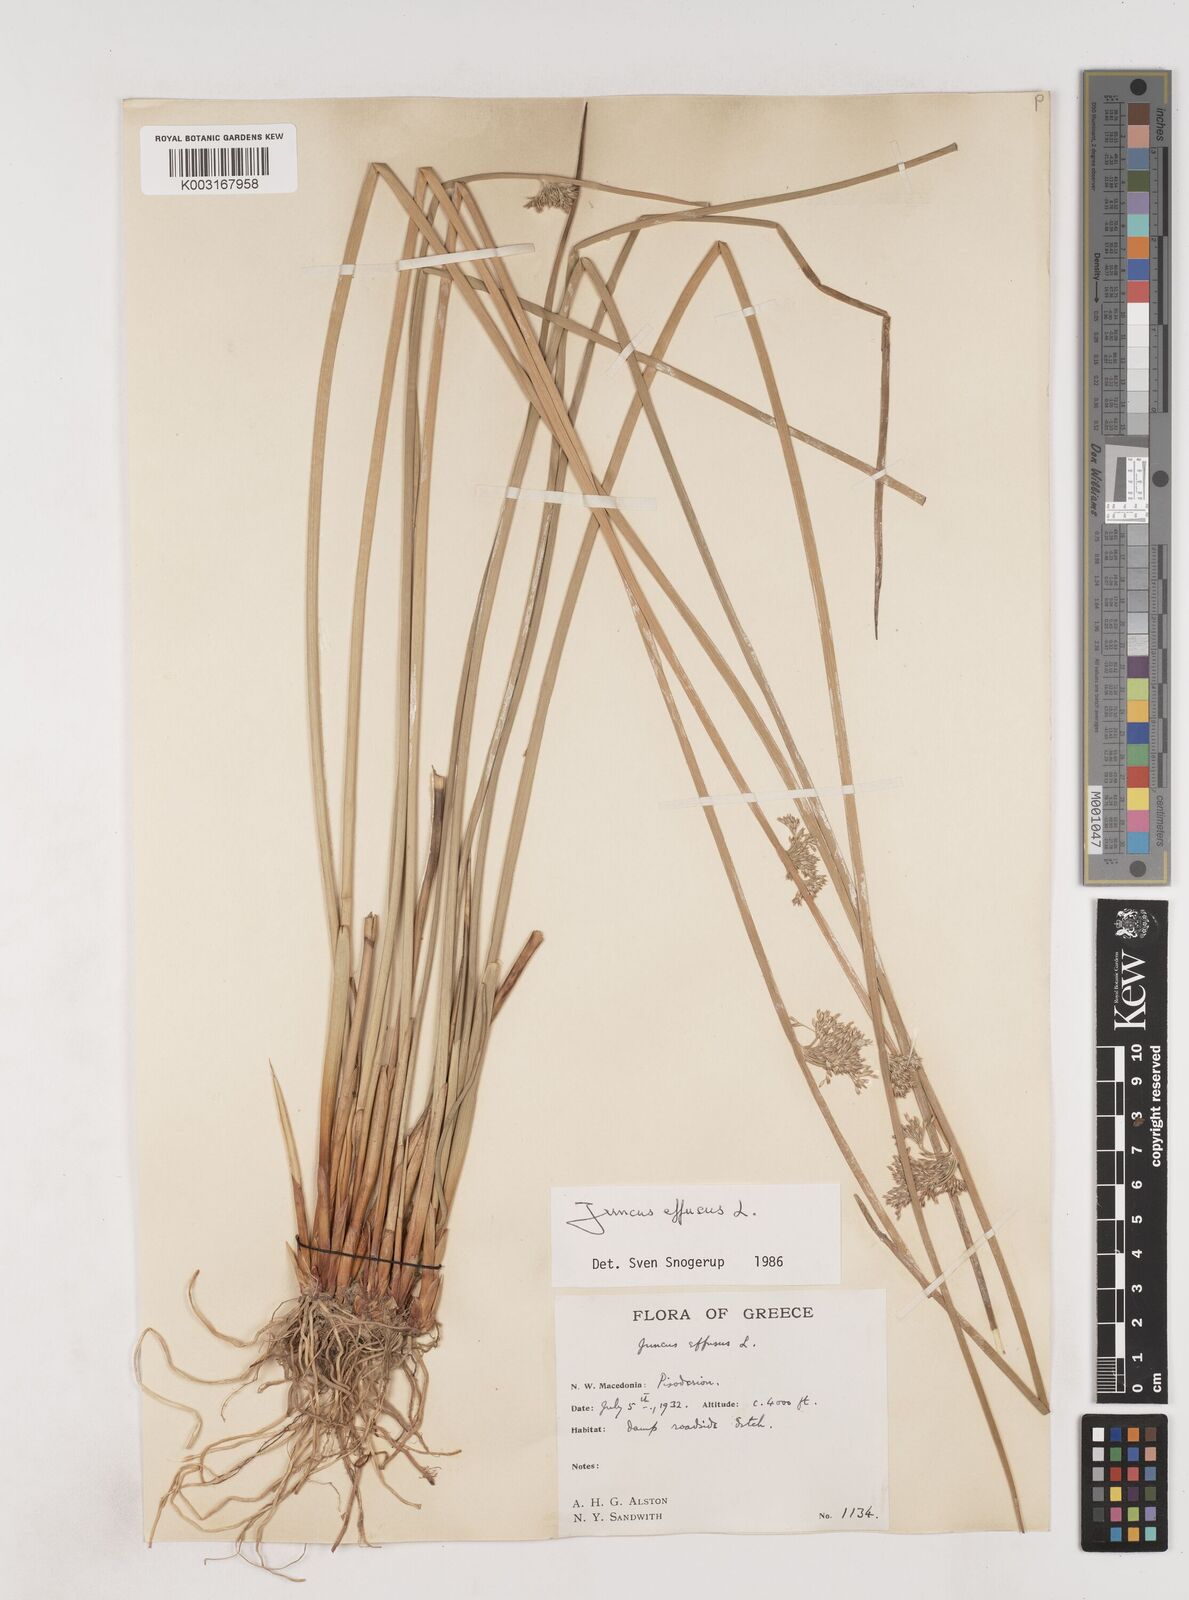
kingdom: Plantae
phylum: Tracheophyta
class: Liliopsida
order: Poales
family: Juncaceae
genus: Juncus
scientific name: Juncus effusus
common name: Soft rush
